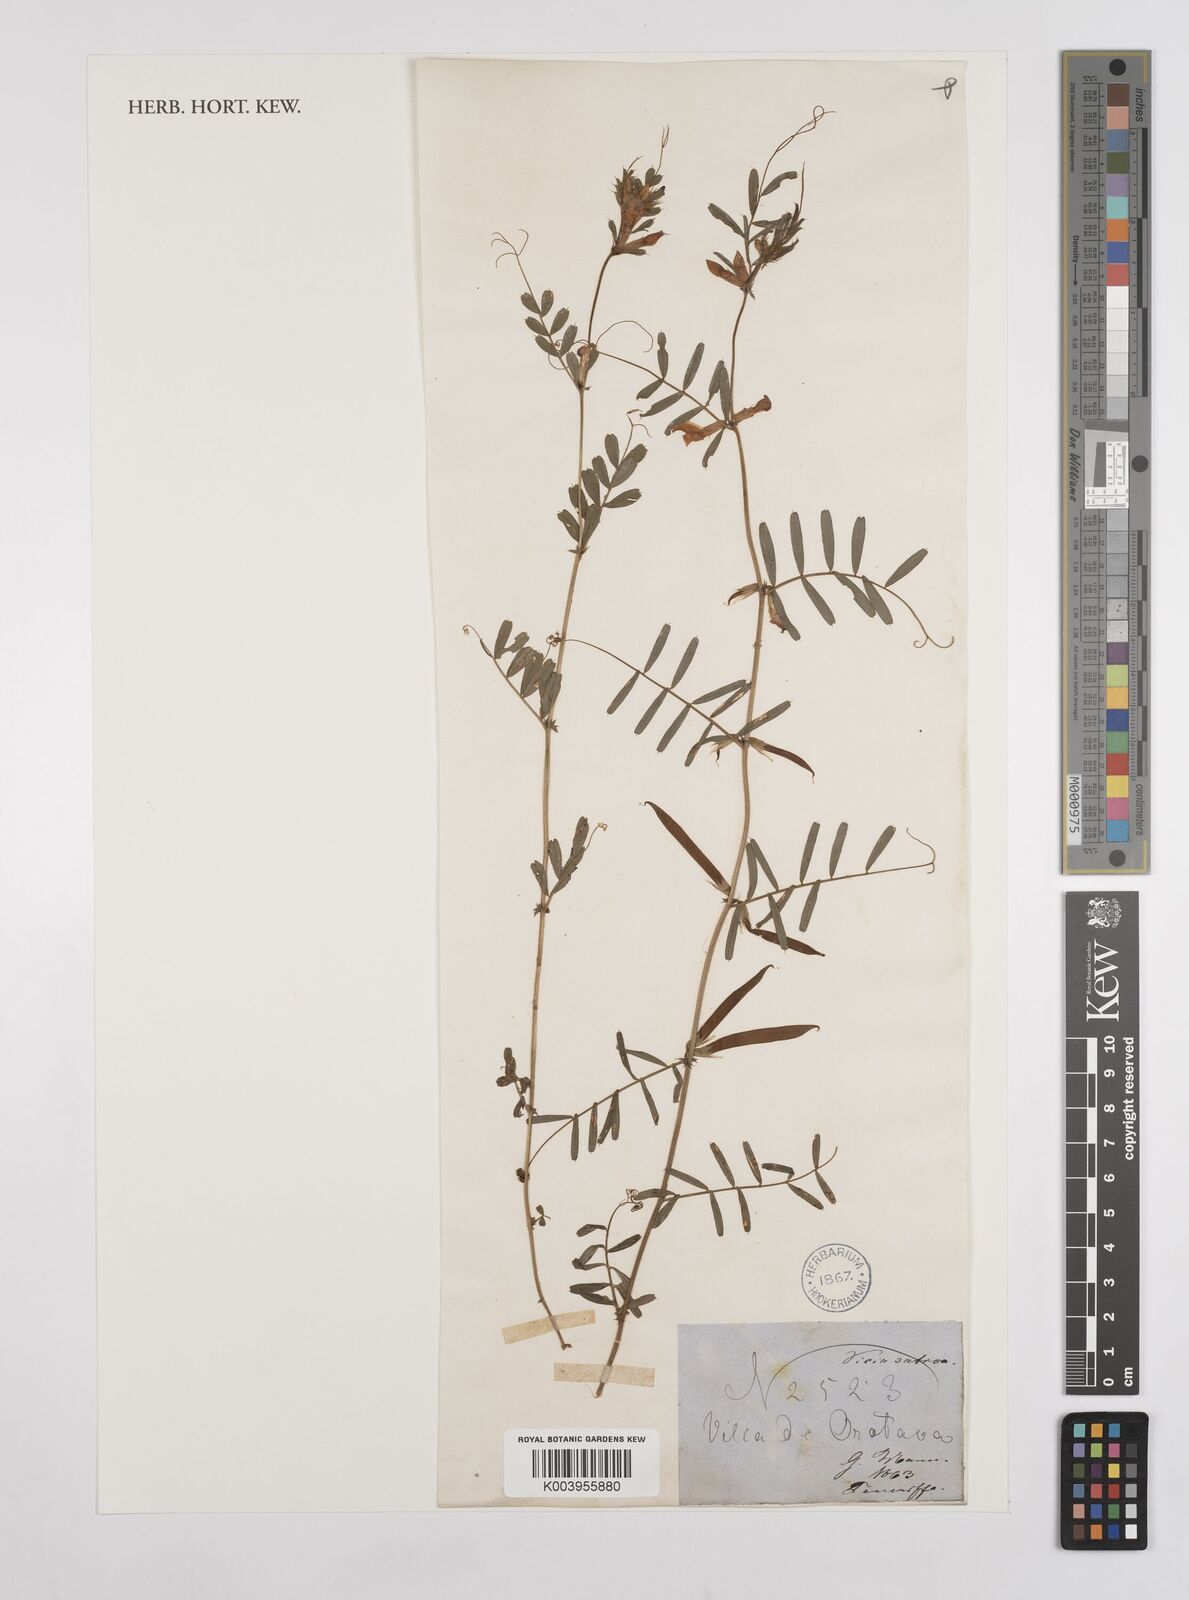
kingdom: Plantae
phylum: Tracheophyta
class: Magnoliopsida
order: Fabales
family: Fabaceae
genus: Vicia
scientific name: Vicia sativa
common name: Garden vetch
